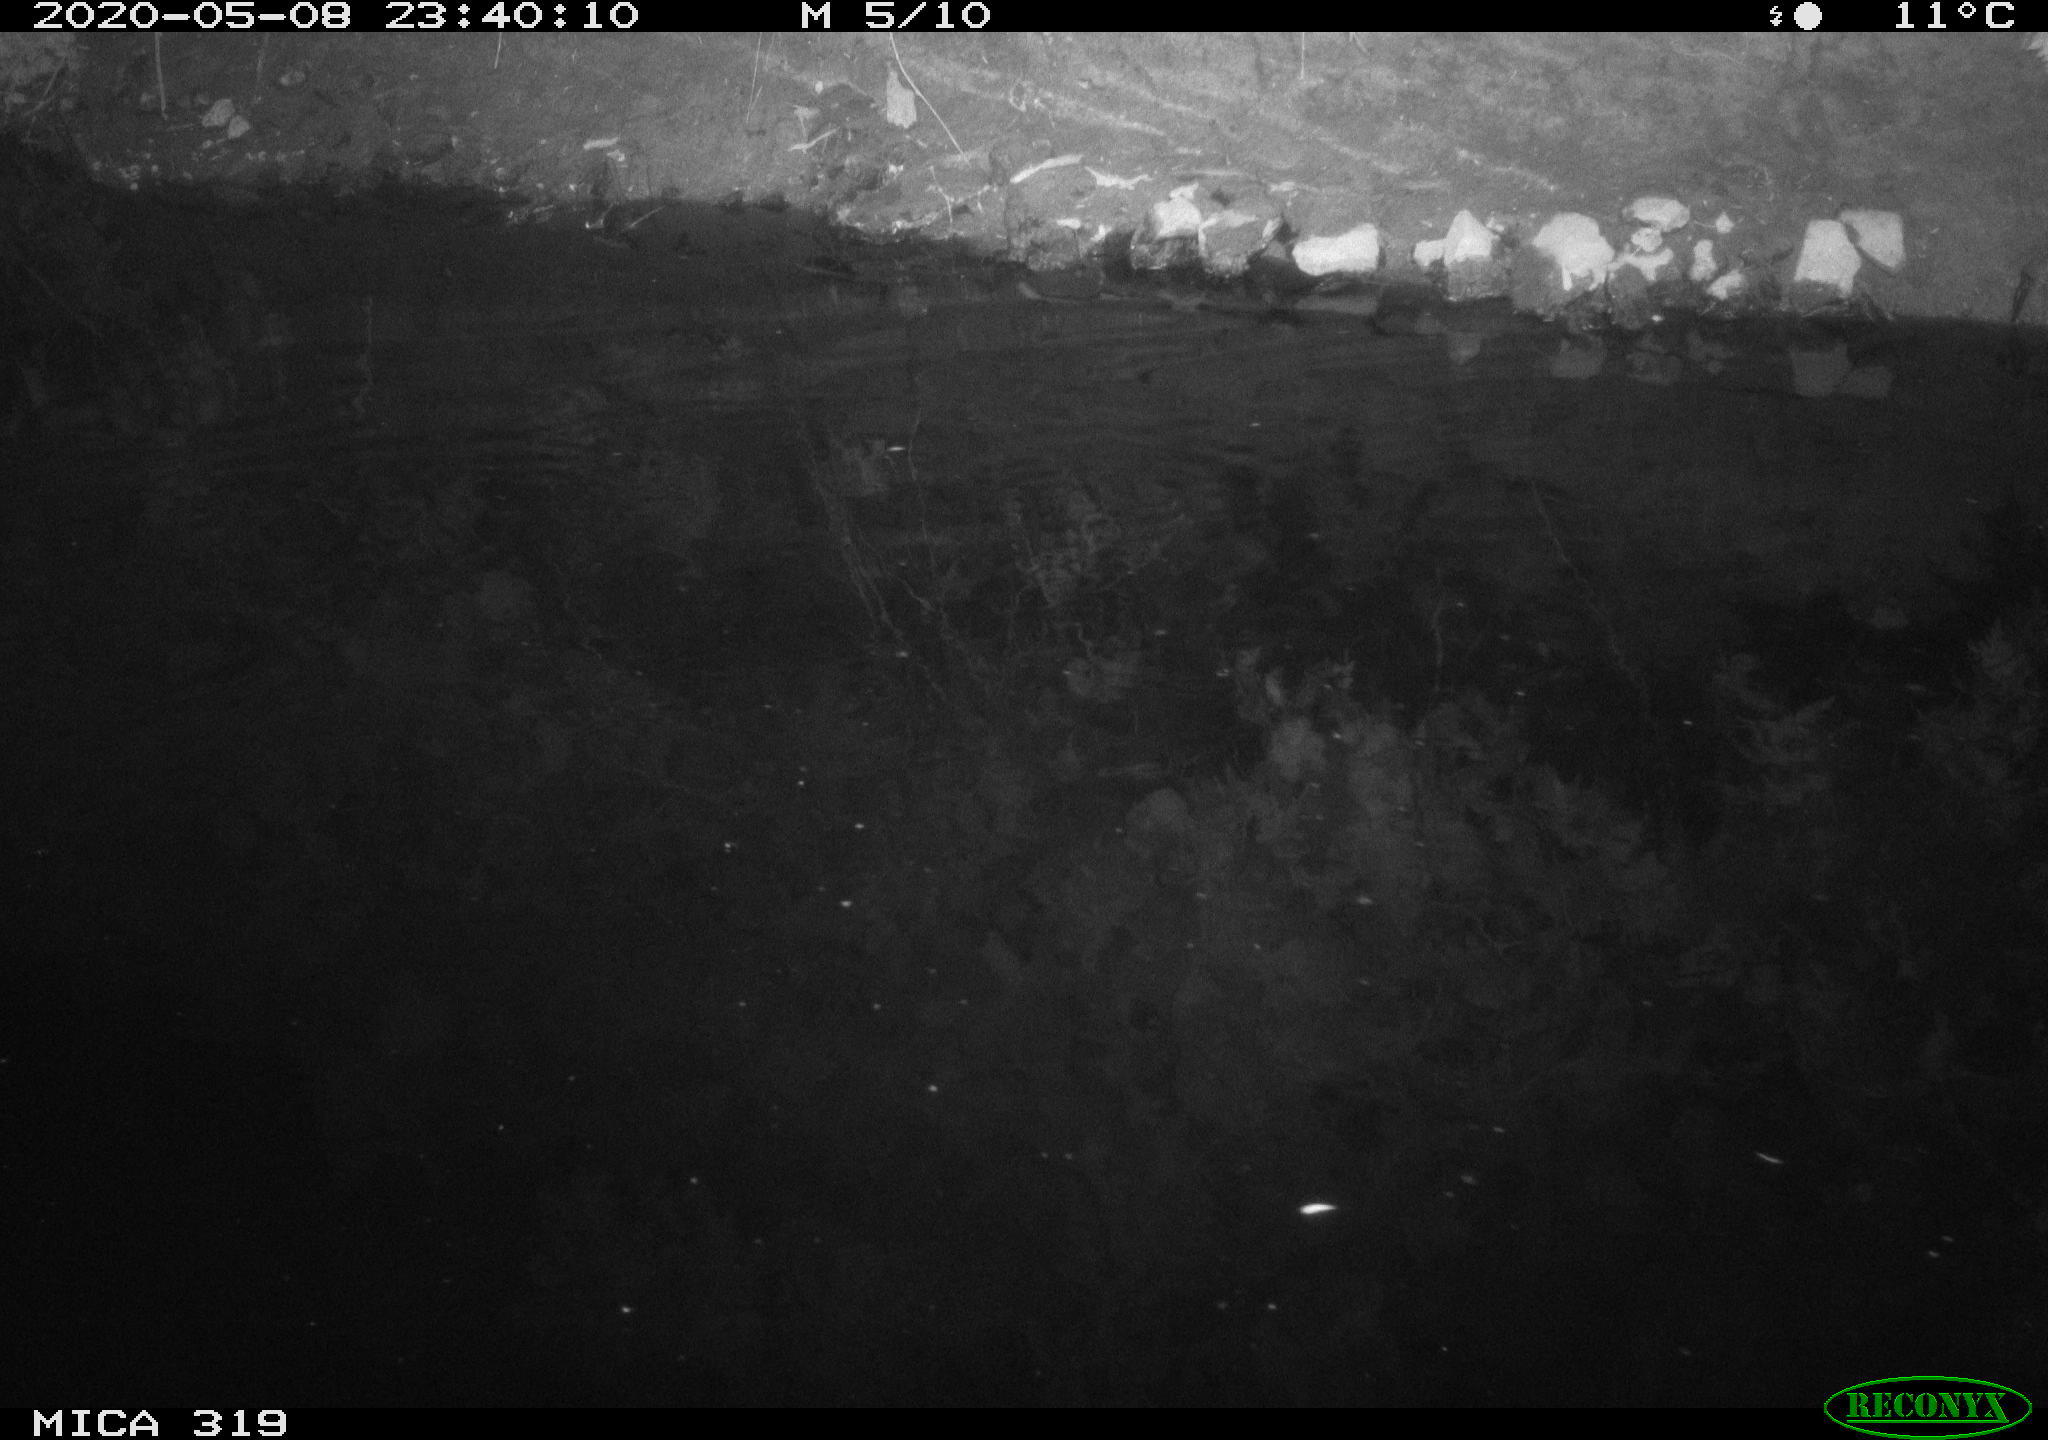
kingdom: Animalia
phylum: Chordata
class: Aves
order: Anseriformes
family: Anatidae
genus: Anas
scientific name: Anas platyrhynchos
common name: Mallard
